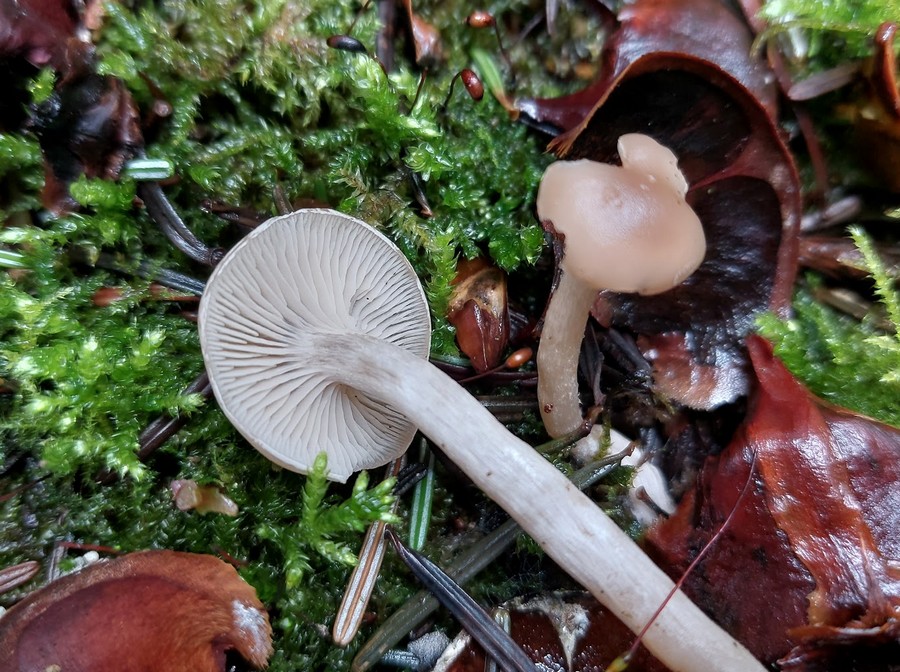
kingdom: Fungi
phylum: Basidiomycota
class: Agaricomycetes
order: Agaricales
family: Tricholomataceae
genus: Clitocybe
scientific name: Clitocybe
